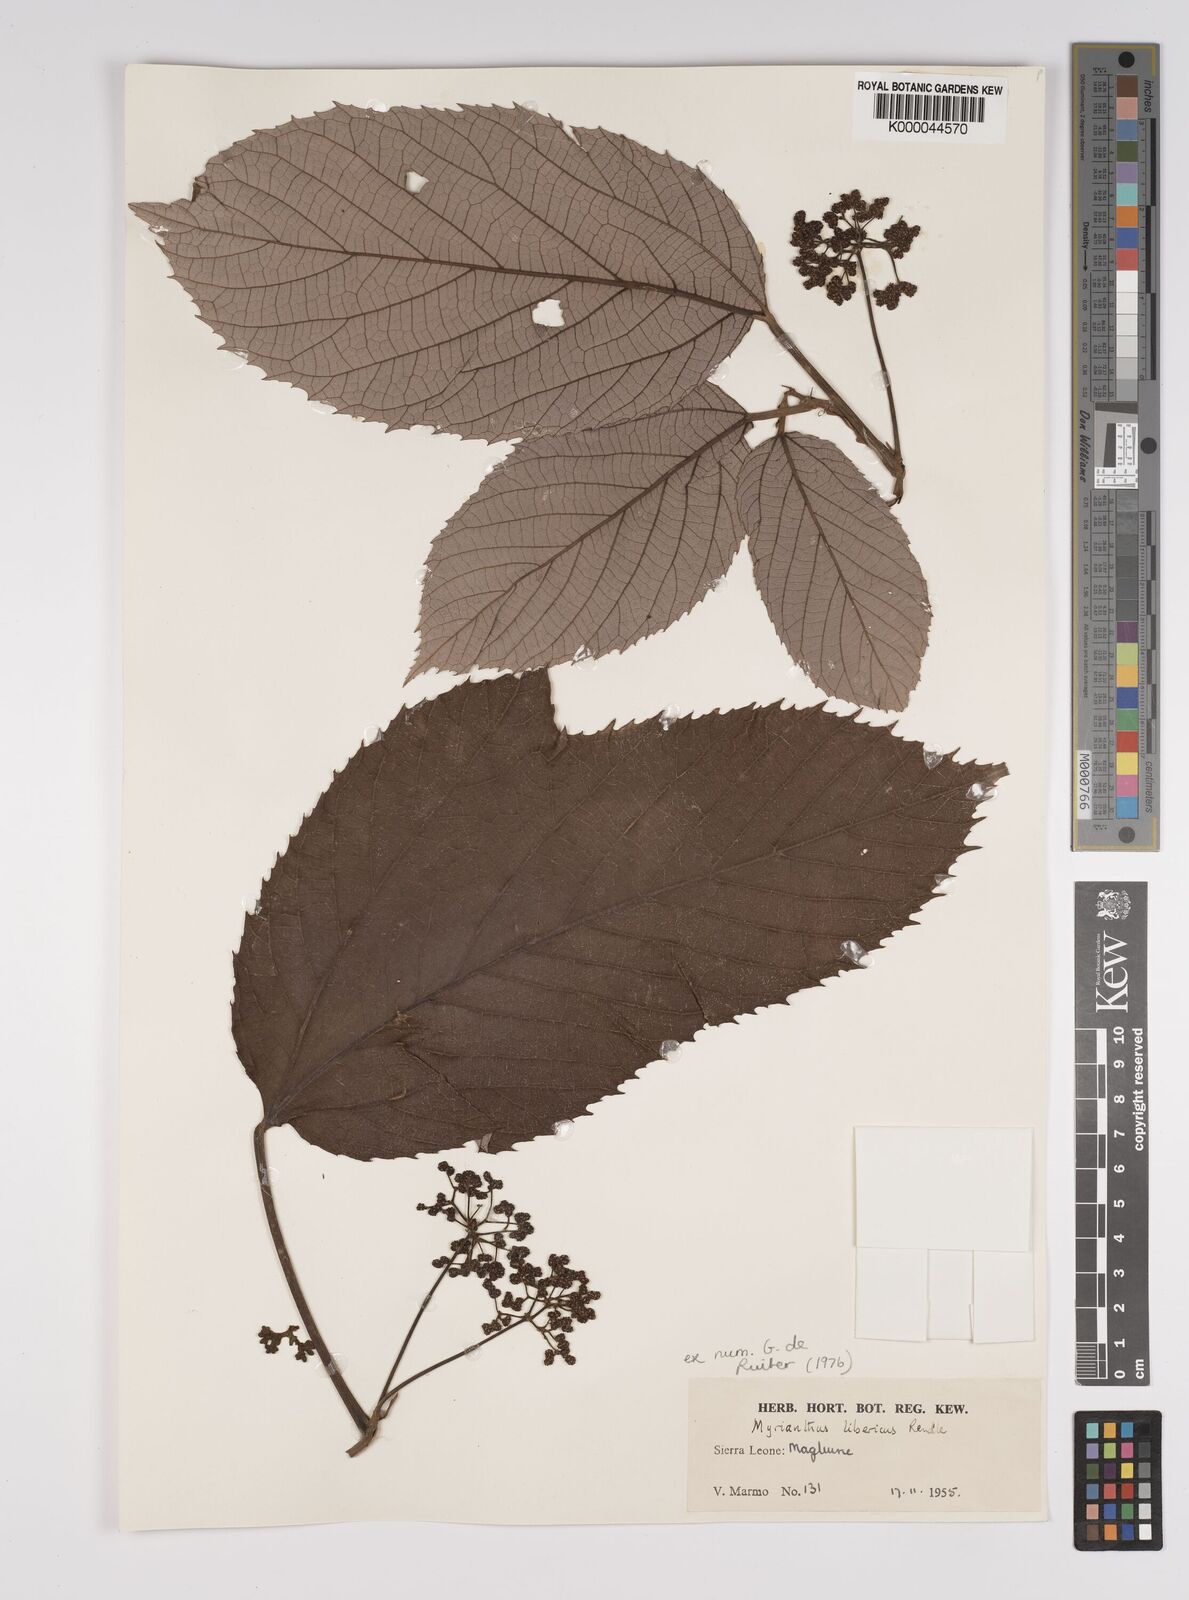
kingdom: Plantae
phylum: Tracheophyta
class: Magnoliopsida
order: Rosales
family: Urticaceae
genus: Myrianthus
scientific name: Myrianthus libericus
